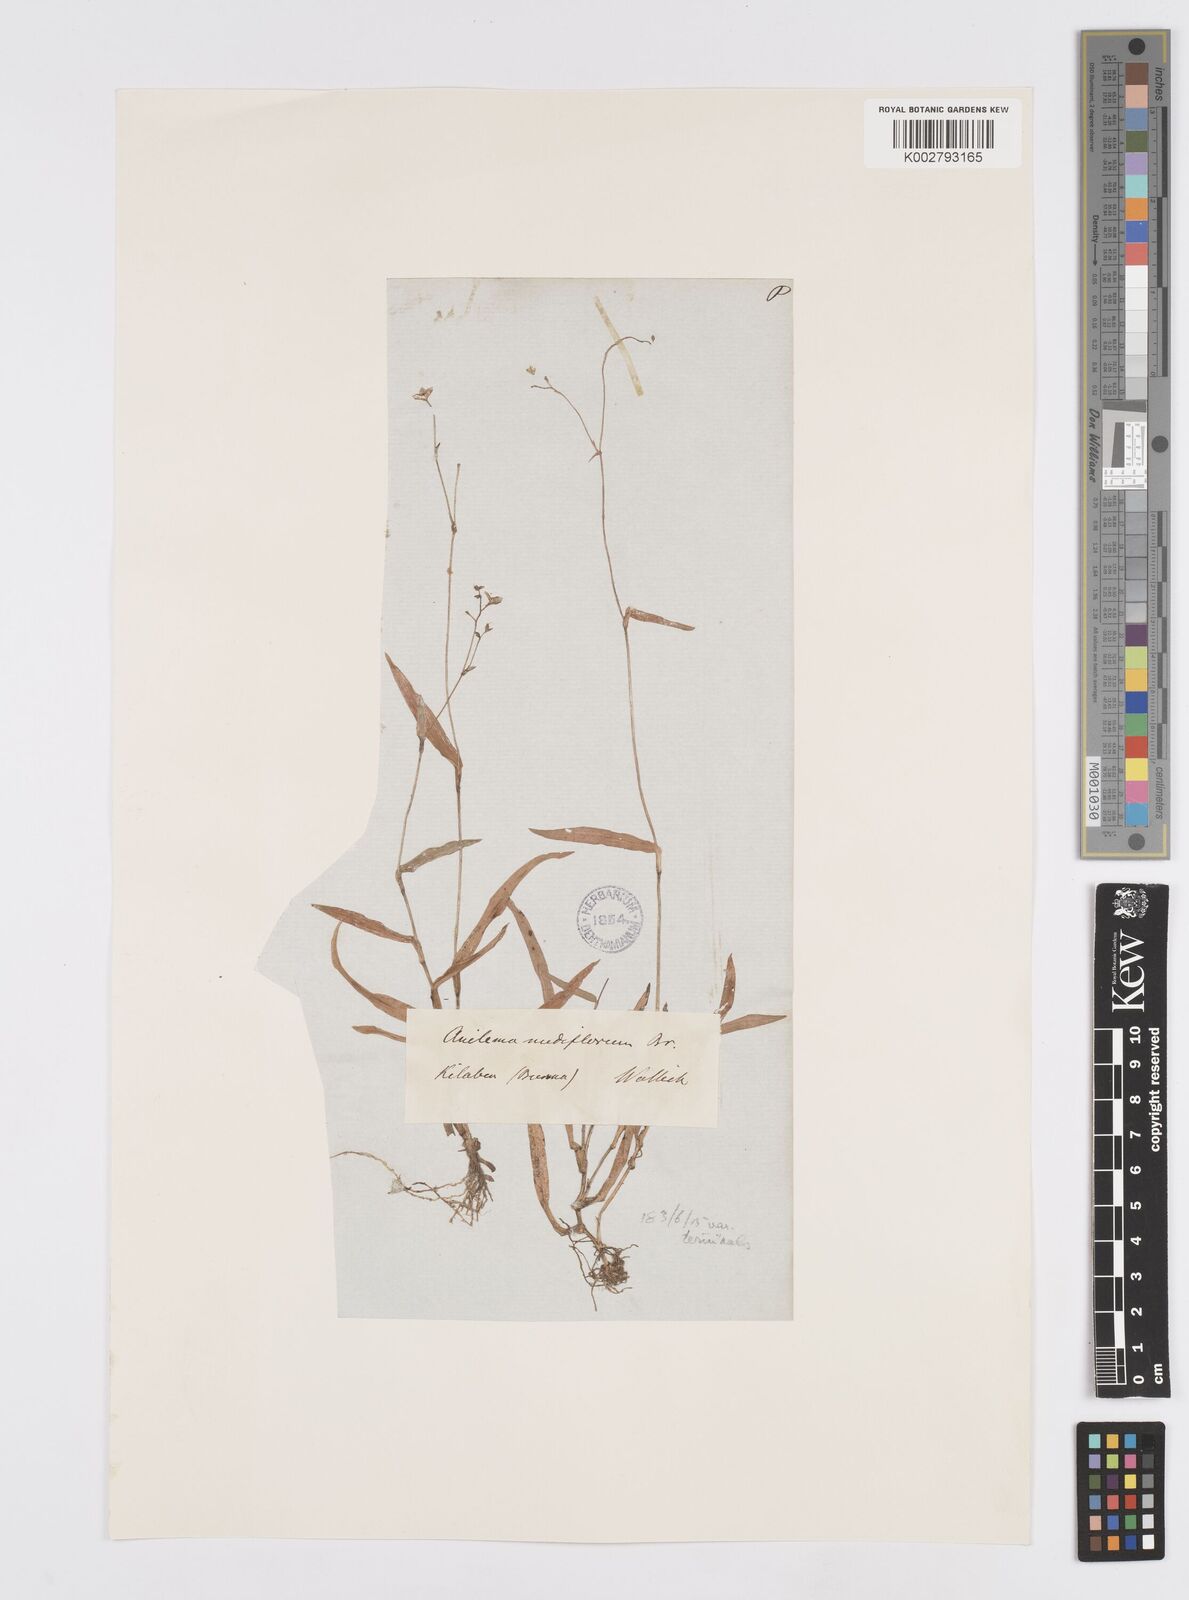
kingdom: Plantae
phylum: Tracheophyta
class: Liliopsida
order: Commelinales
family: Commelinaceae
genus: Murdannia
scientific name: Murdannia
